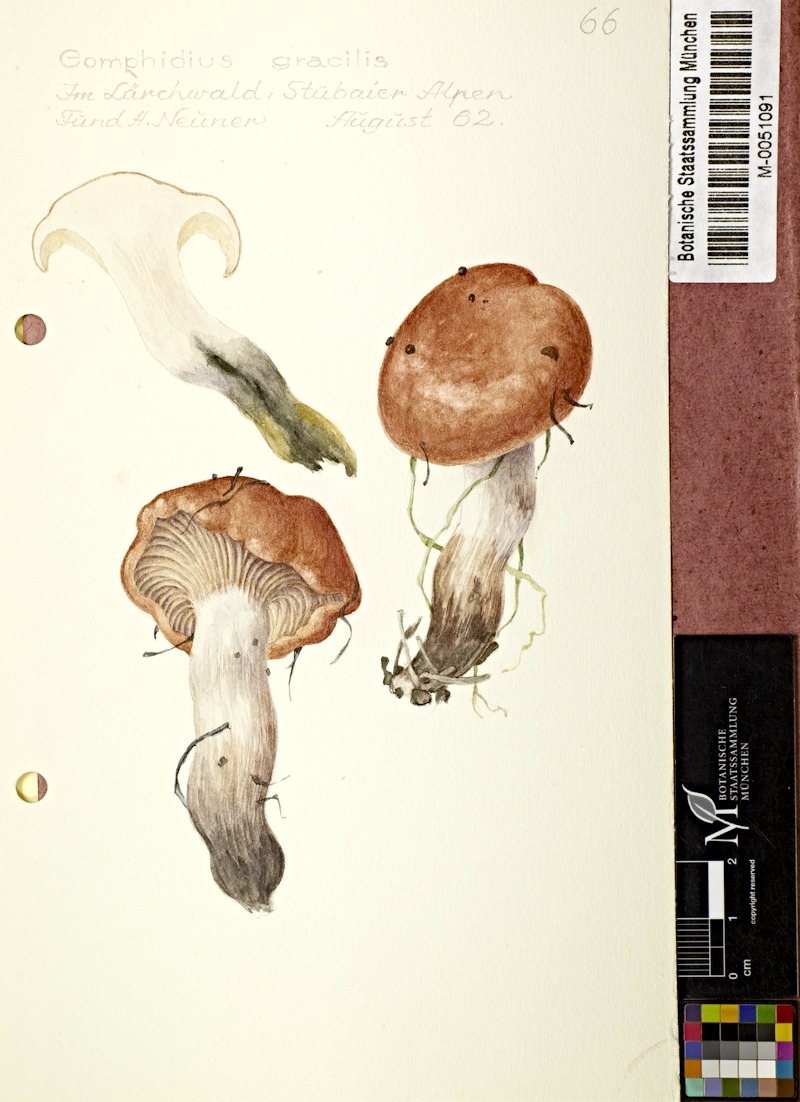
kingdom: Fungi
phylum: Basidiomycota
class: Agaricomycetes
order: Boletales
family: Gomphidiaceae
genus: Gomphidius
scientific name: Gomphidius maculatus
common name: Larch spike
